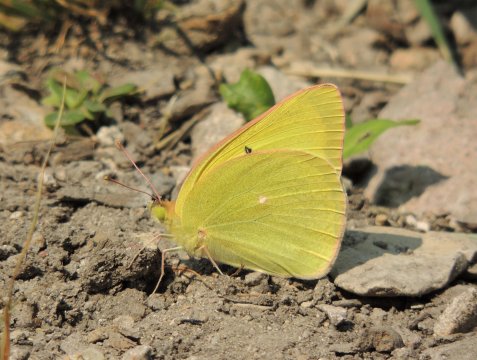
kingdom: Animalia
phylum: Arthropoda
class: Insecta
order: Lepidoptera
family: Pieridae
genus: Colias
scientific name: Colias christina
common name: Christina Sulphur
